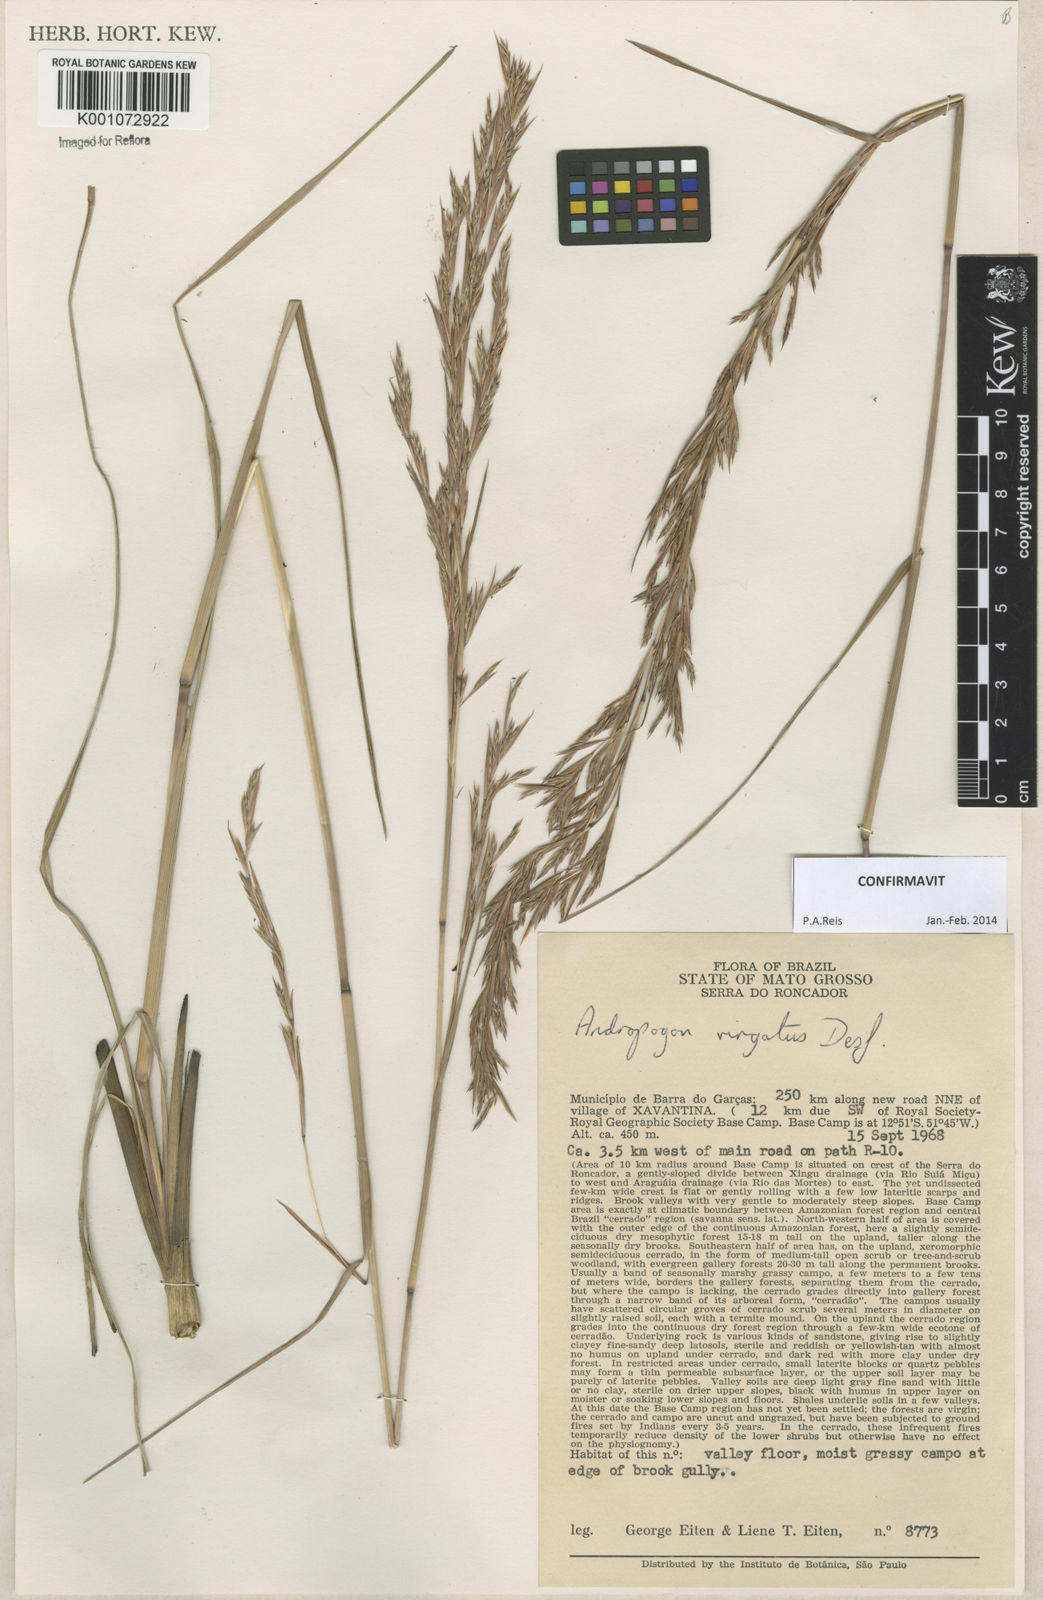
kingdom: Plantae
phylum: Tracheophyta
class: Liliopsida
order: Poales
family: Poaceae
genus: Andropogon
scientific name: Andropogon virgatus
